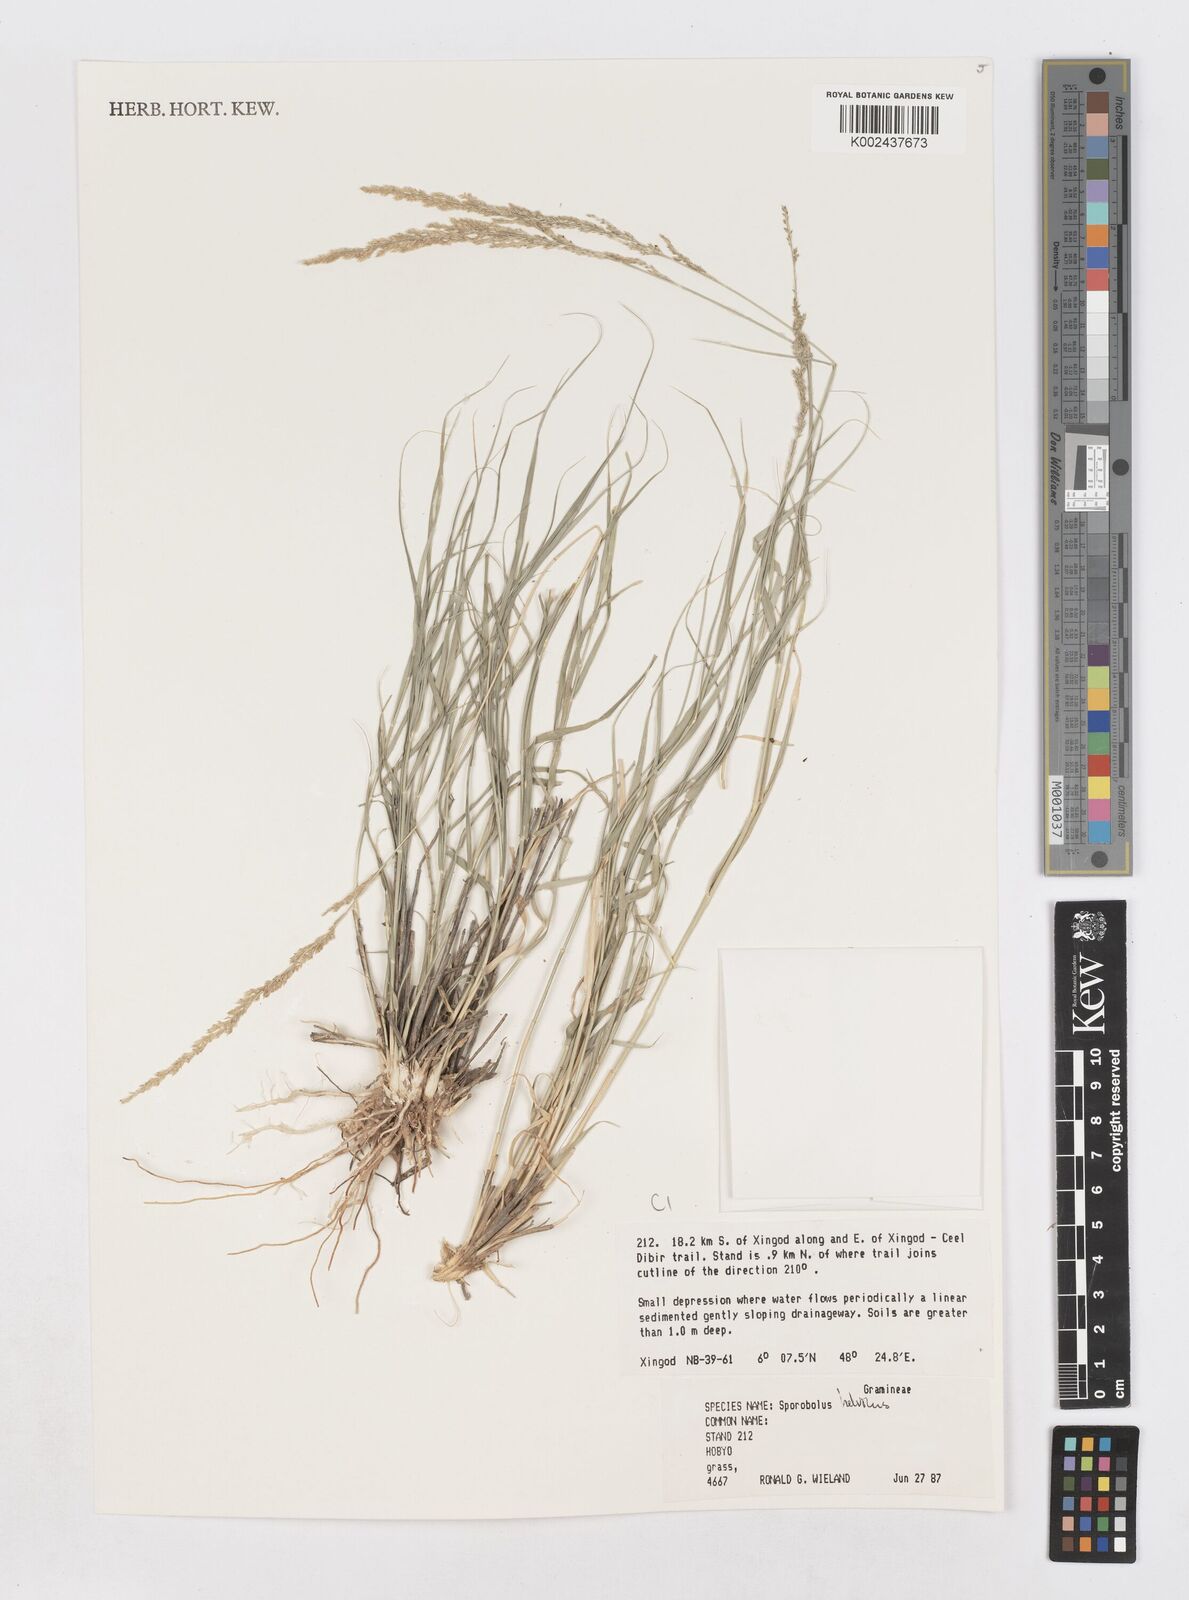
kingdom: Plantae
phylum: Tracheophyta
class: Liliopsida
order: Poales
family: Poaceae
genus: Sporobolus
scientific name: Sporobolus helvolus
